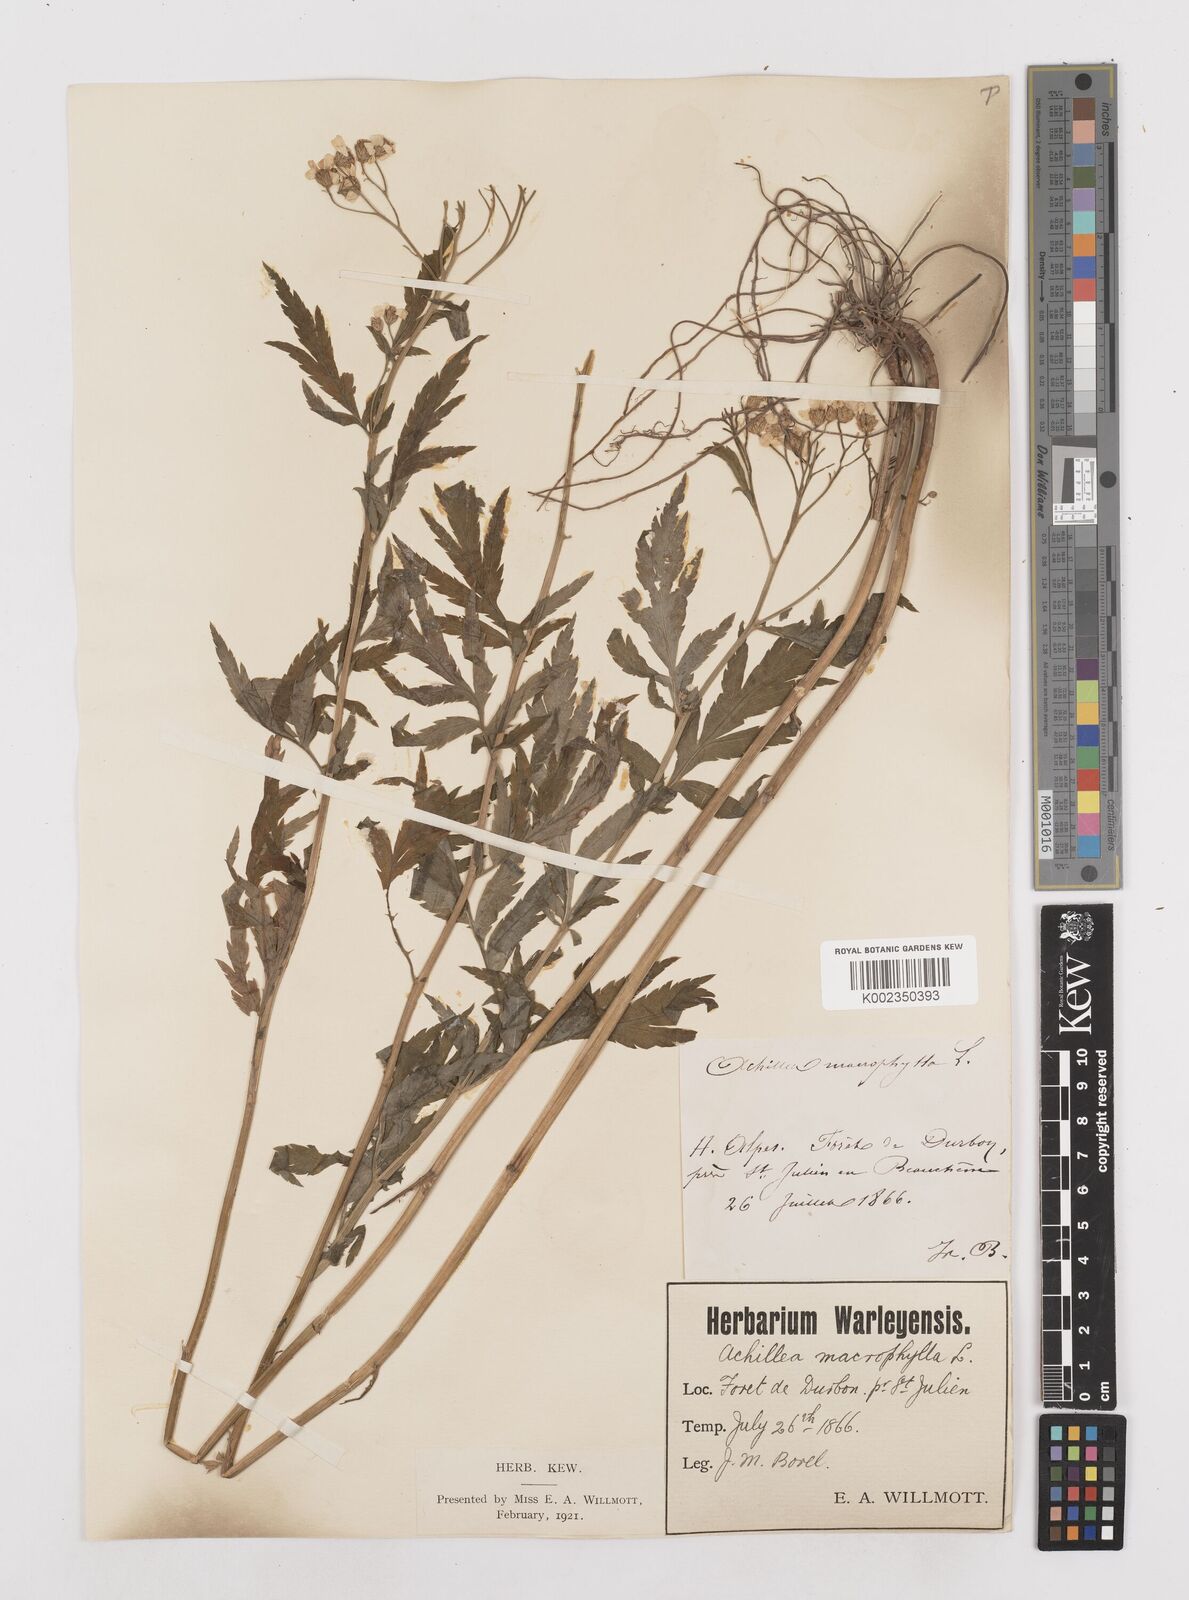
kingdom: Plantae
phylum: Tracheophyta
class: Magnoliopsida
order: Asterales
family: Asteraceae
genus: Achillea
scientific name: Achillea macrophylla
